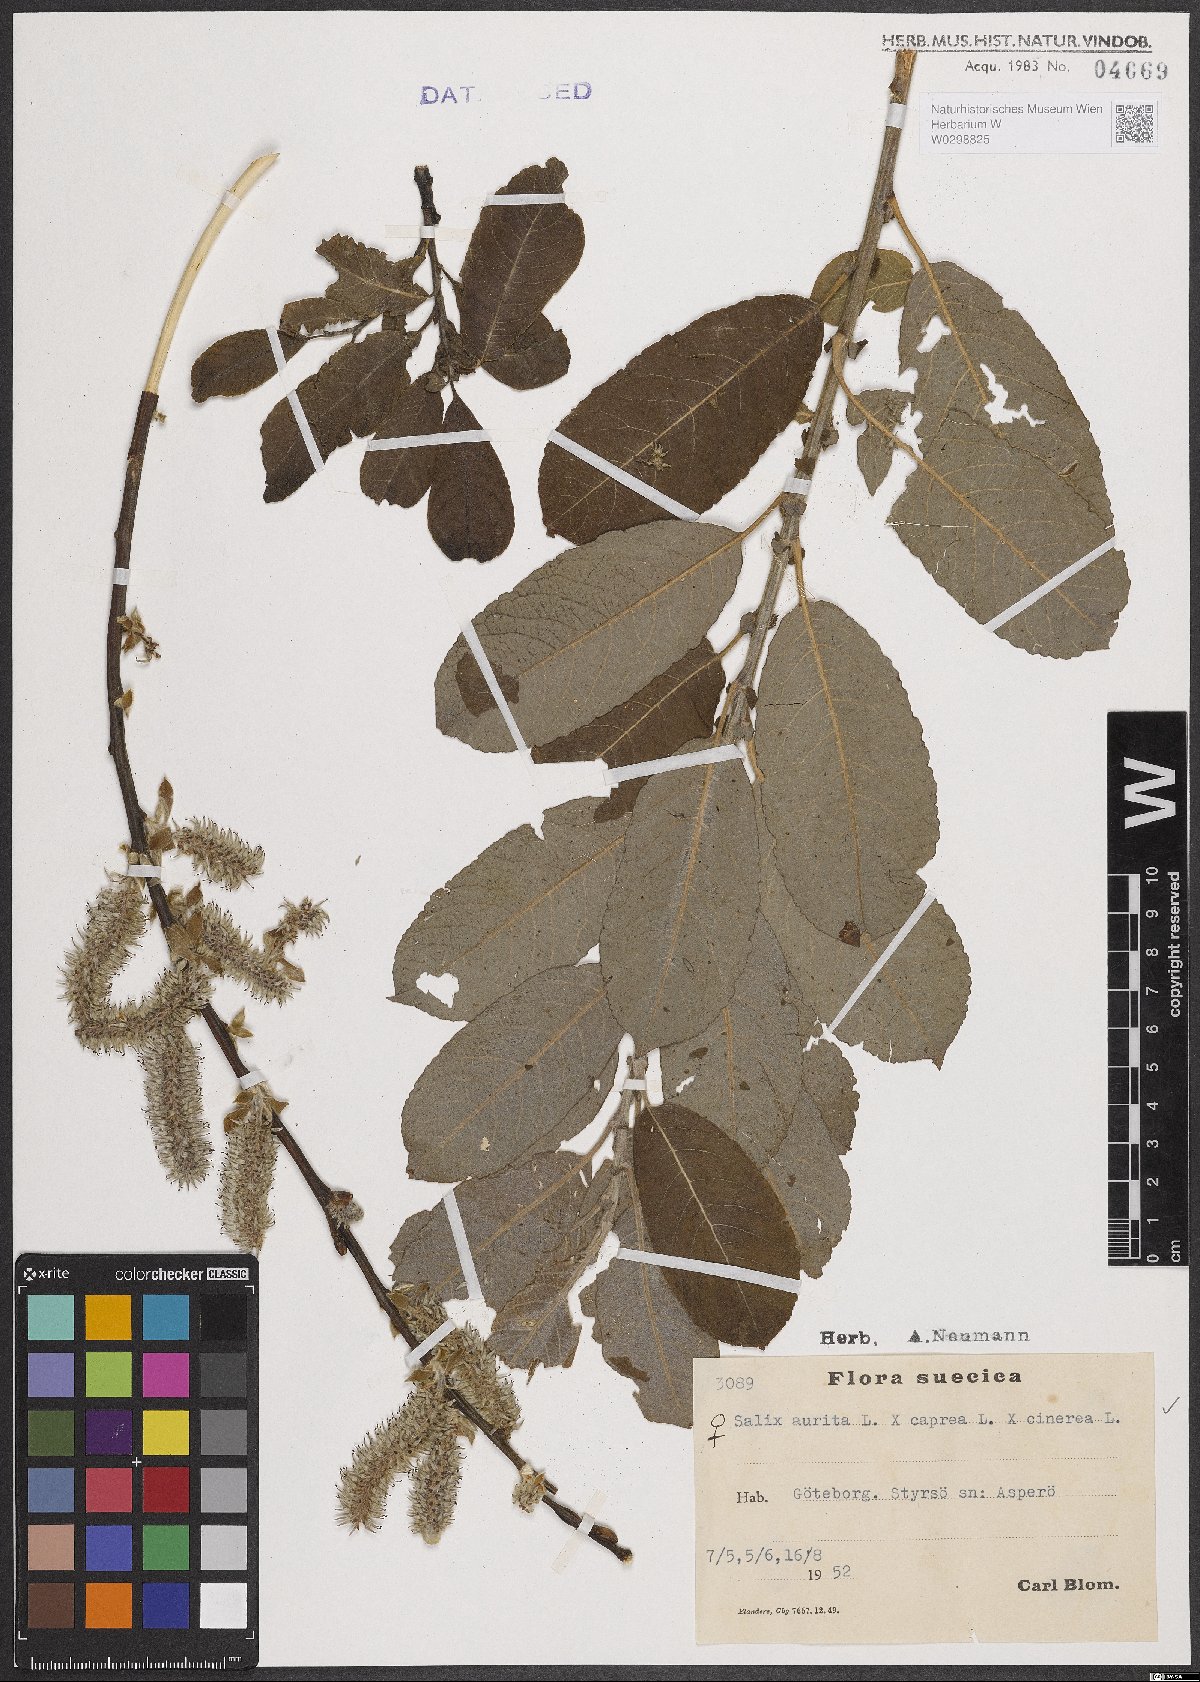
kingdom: Plantae
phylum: Tracheophyta
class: Magnoliopsida
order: Malpighiales
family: Salicaceae
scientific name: Salicaceae
